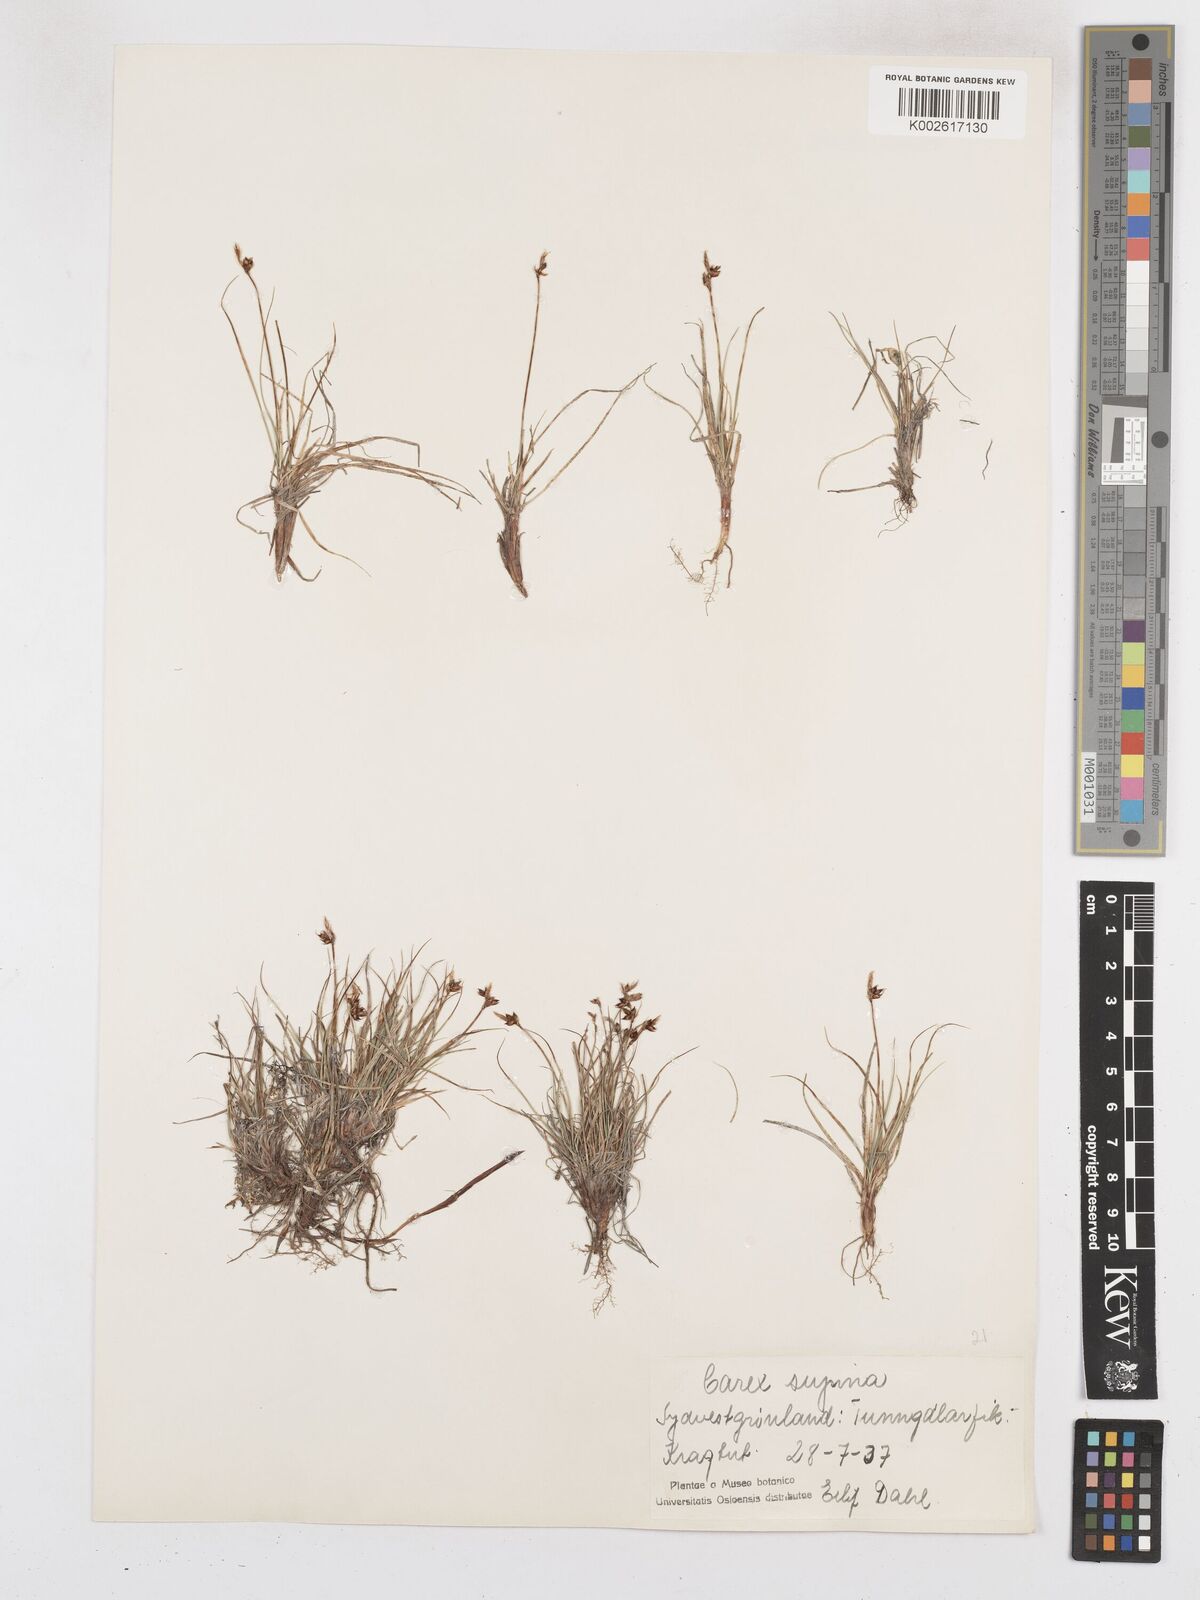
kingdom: Plantae
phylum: Tracheophyta
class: Liliopsida
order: Poales
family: Cyperaceae
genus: Carex
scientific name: Carex supina
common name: Lying-back sedge
